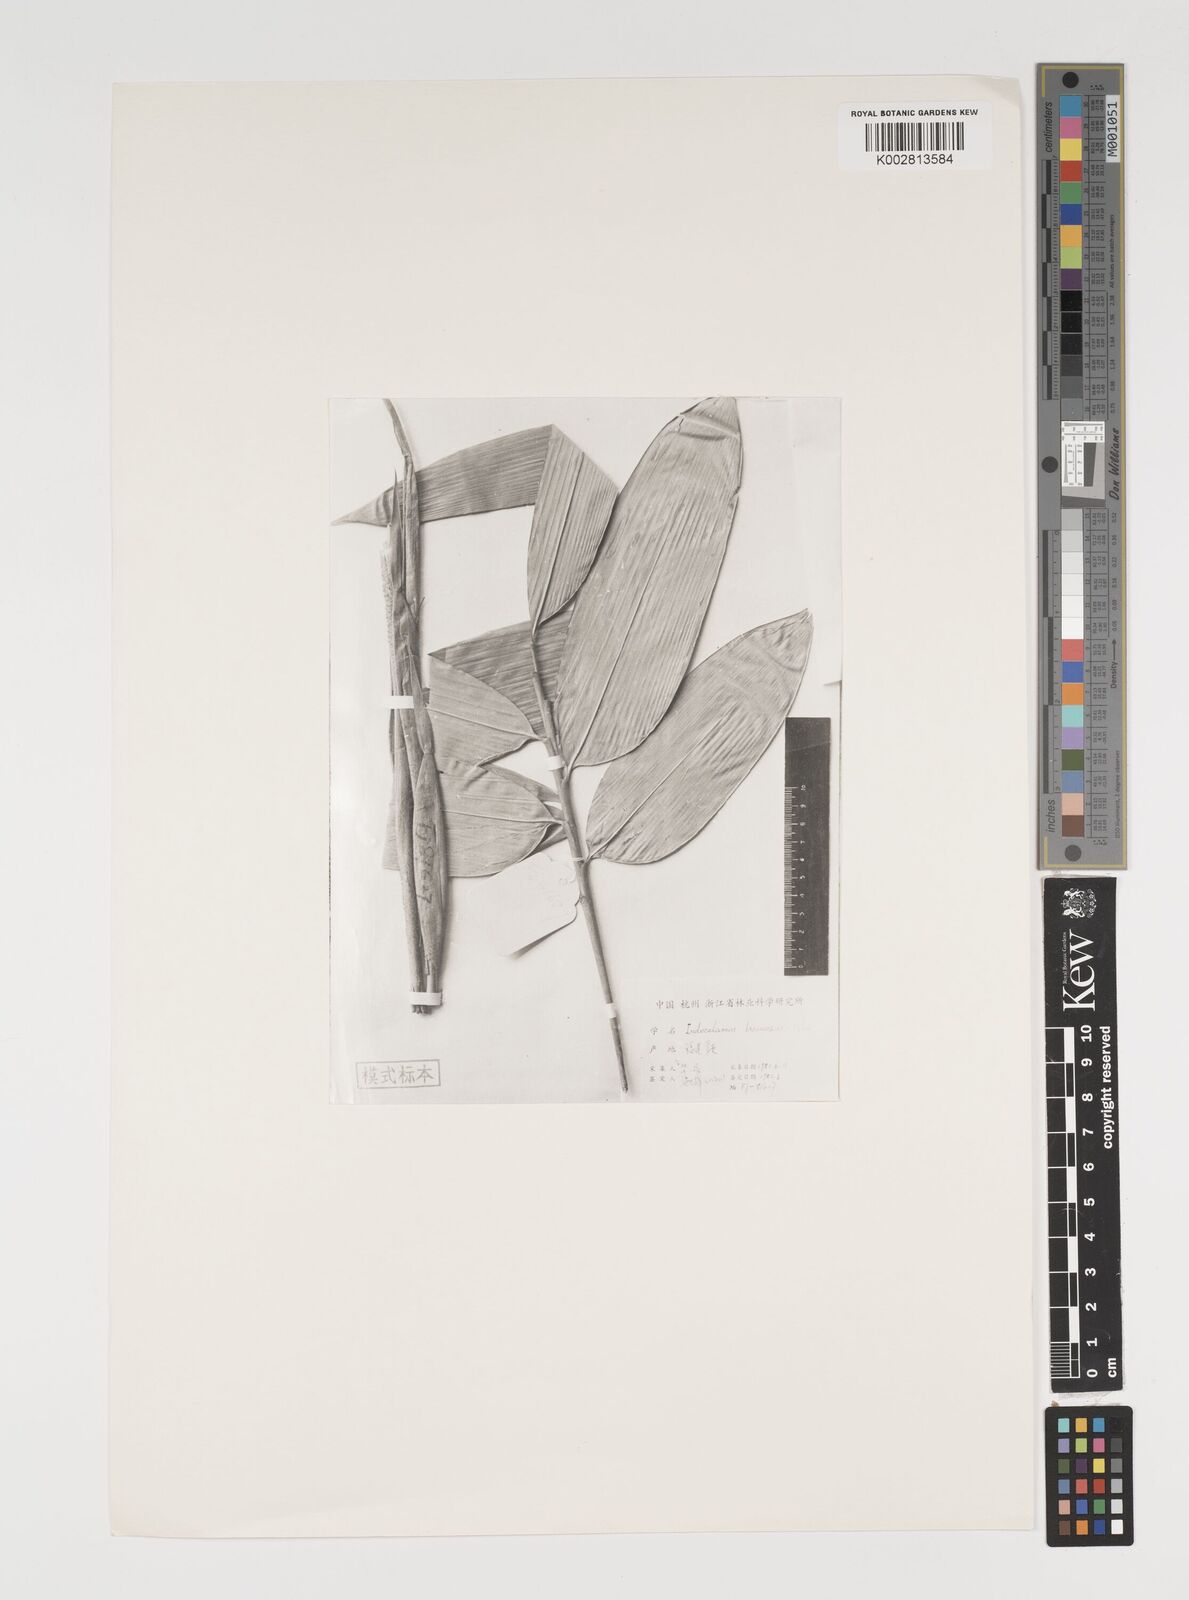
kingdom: Plantae
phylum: Tracheophyta
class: Liliopsida
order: Poales
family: Poaceae
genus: Indocalamus
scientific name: Indocalamus latifolius
